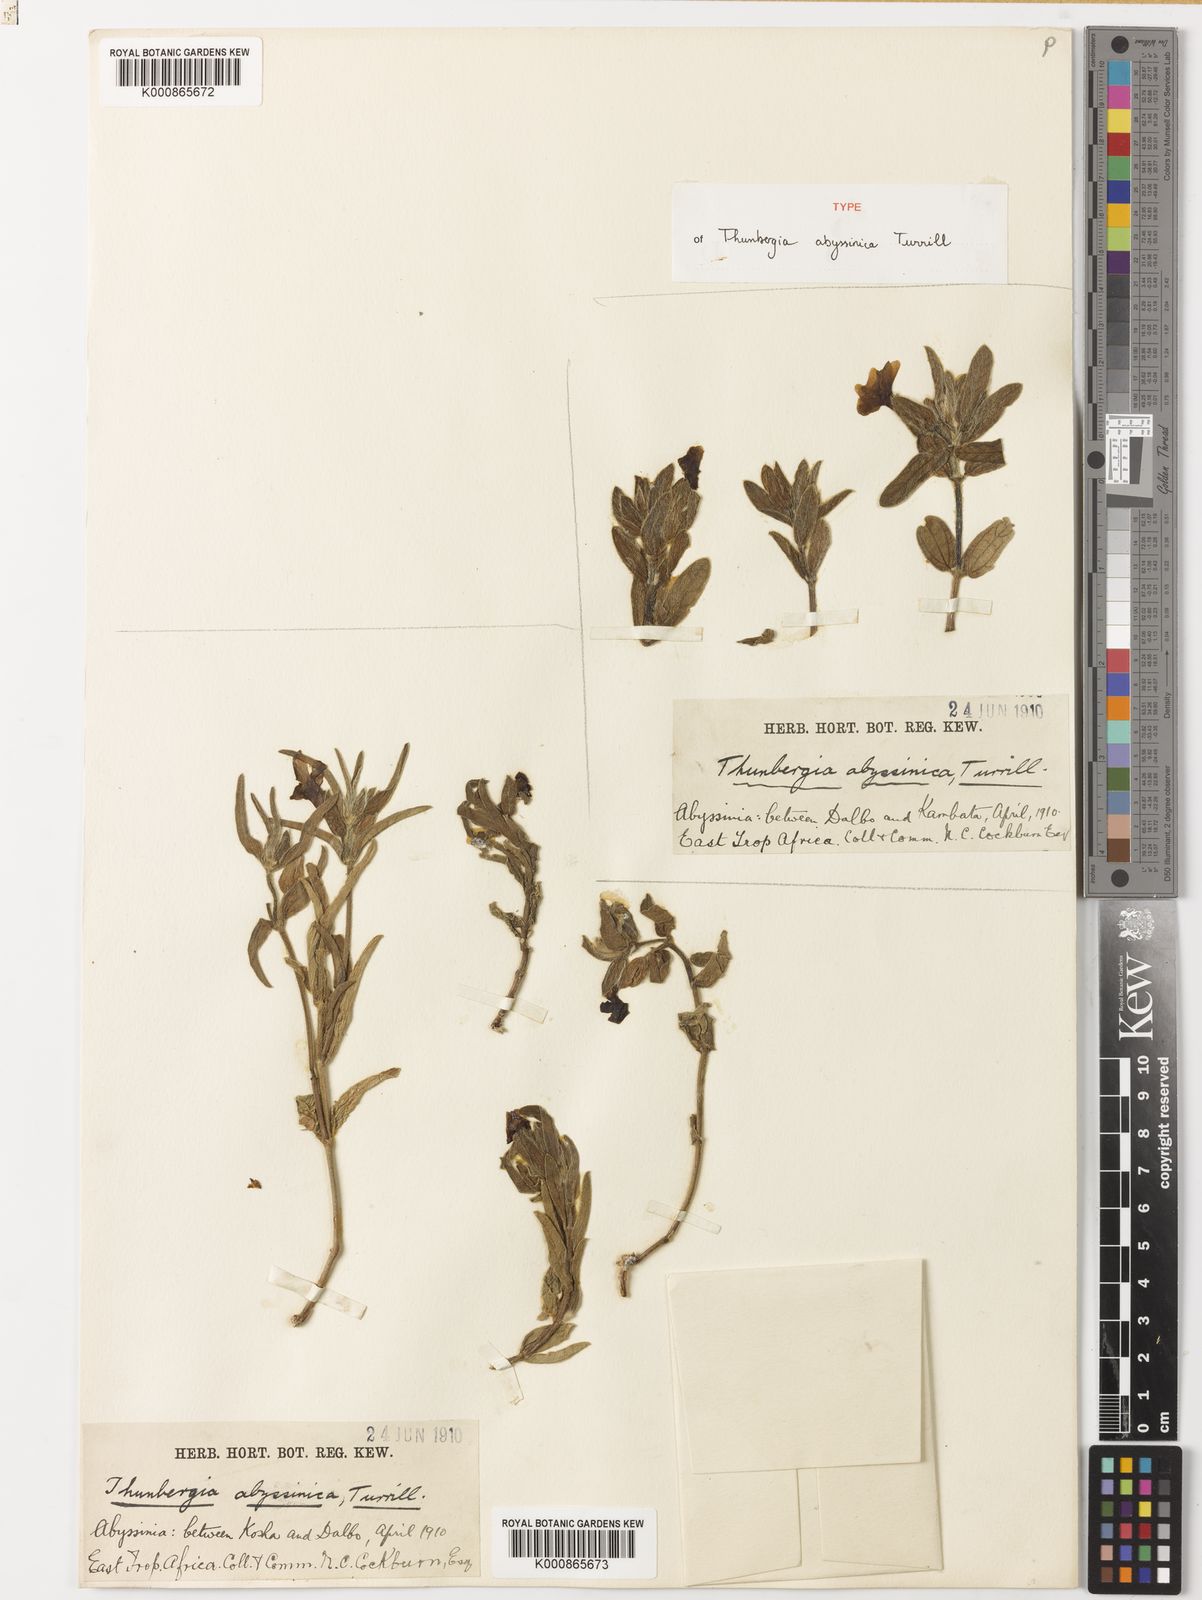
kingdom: Plantae
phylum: Tracheophyta
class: Magnoliopsida
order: Lamiales
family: Acanthaceae
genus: Thunbergia
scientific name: Thunbergia ruspolii
